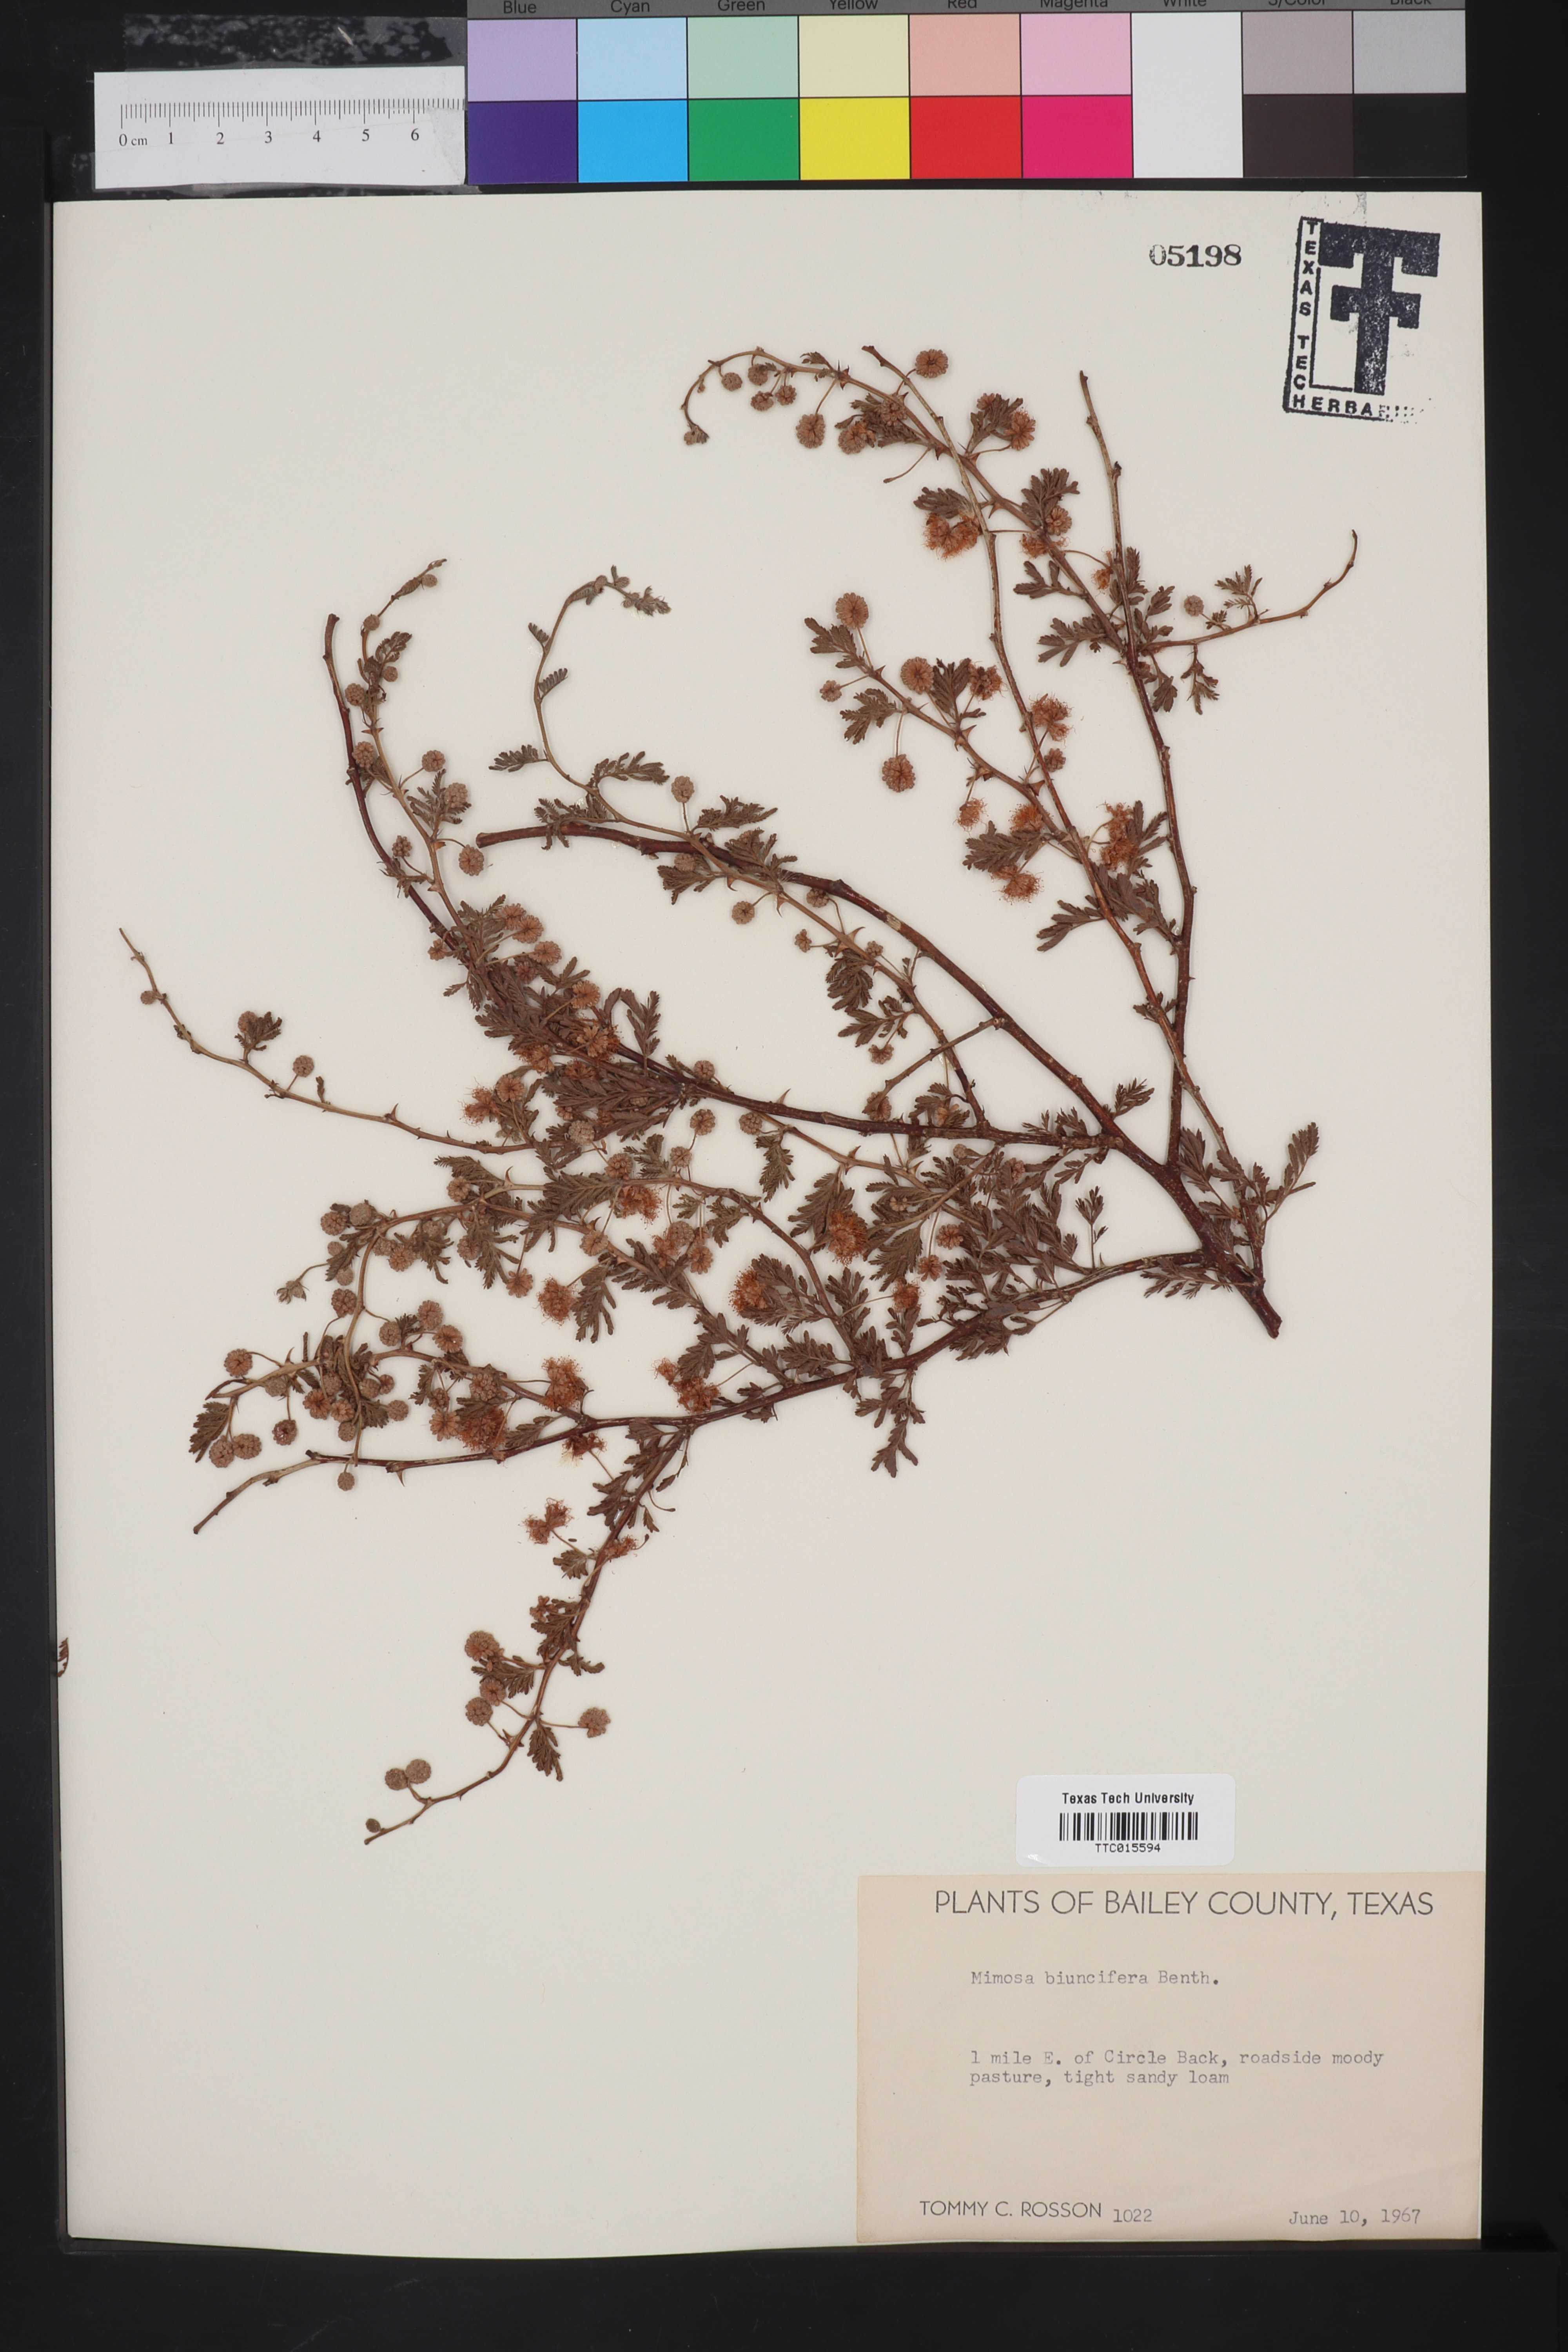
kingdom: Plantae
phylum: Tracheophyta
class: Magnoliopsida
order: Fabales
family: Fabaceae
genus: Mimosa
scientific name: Mimosa biuncifera
